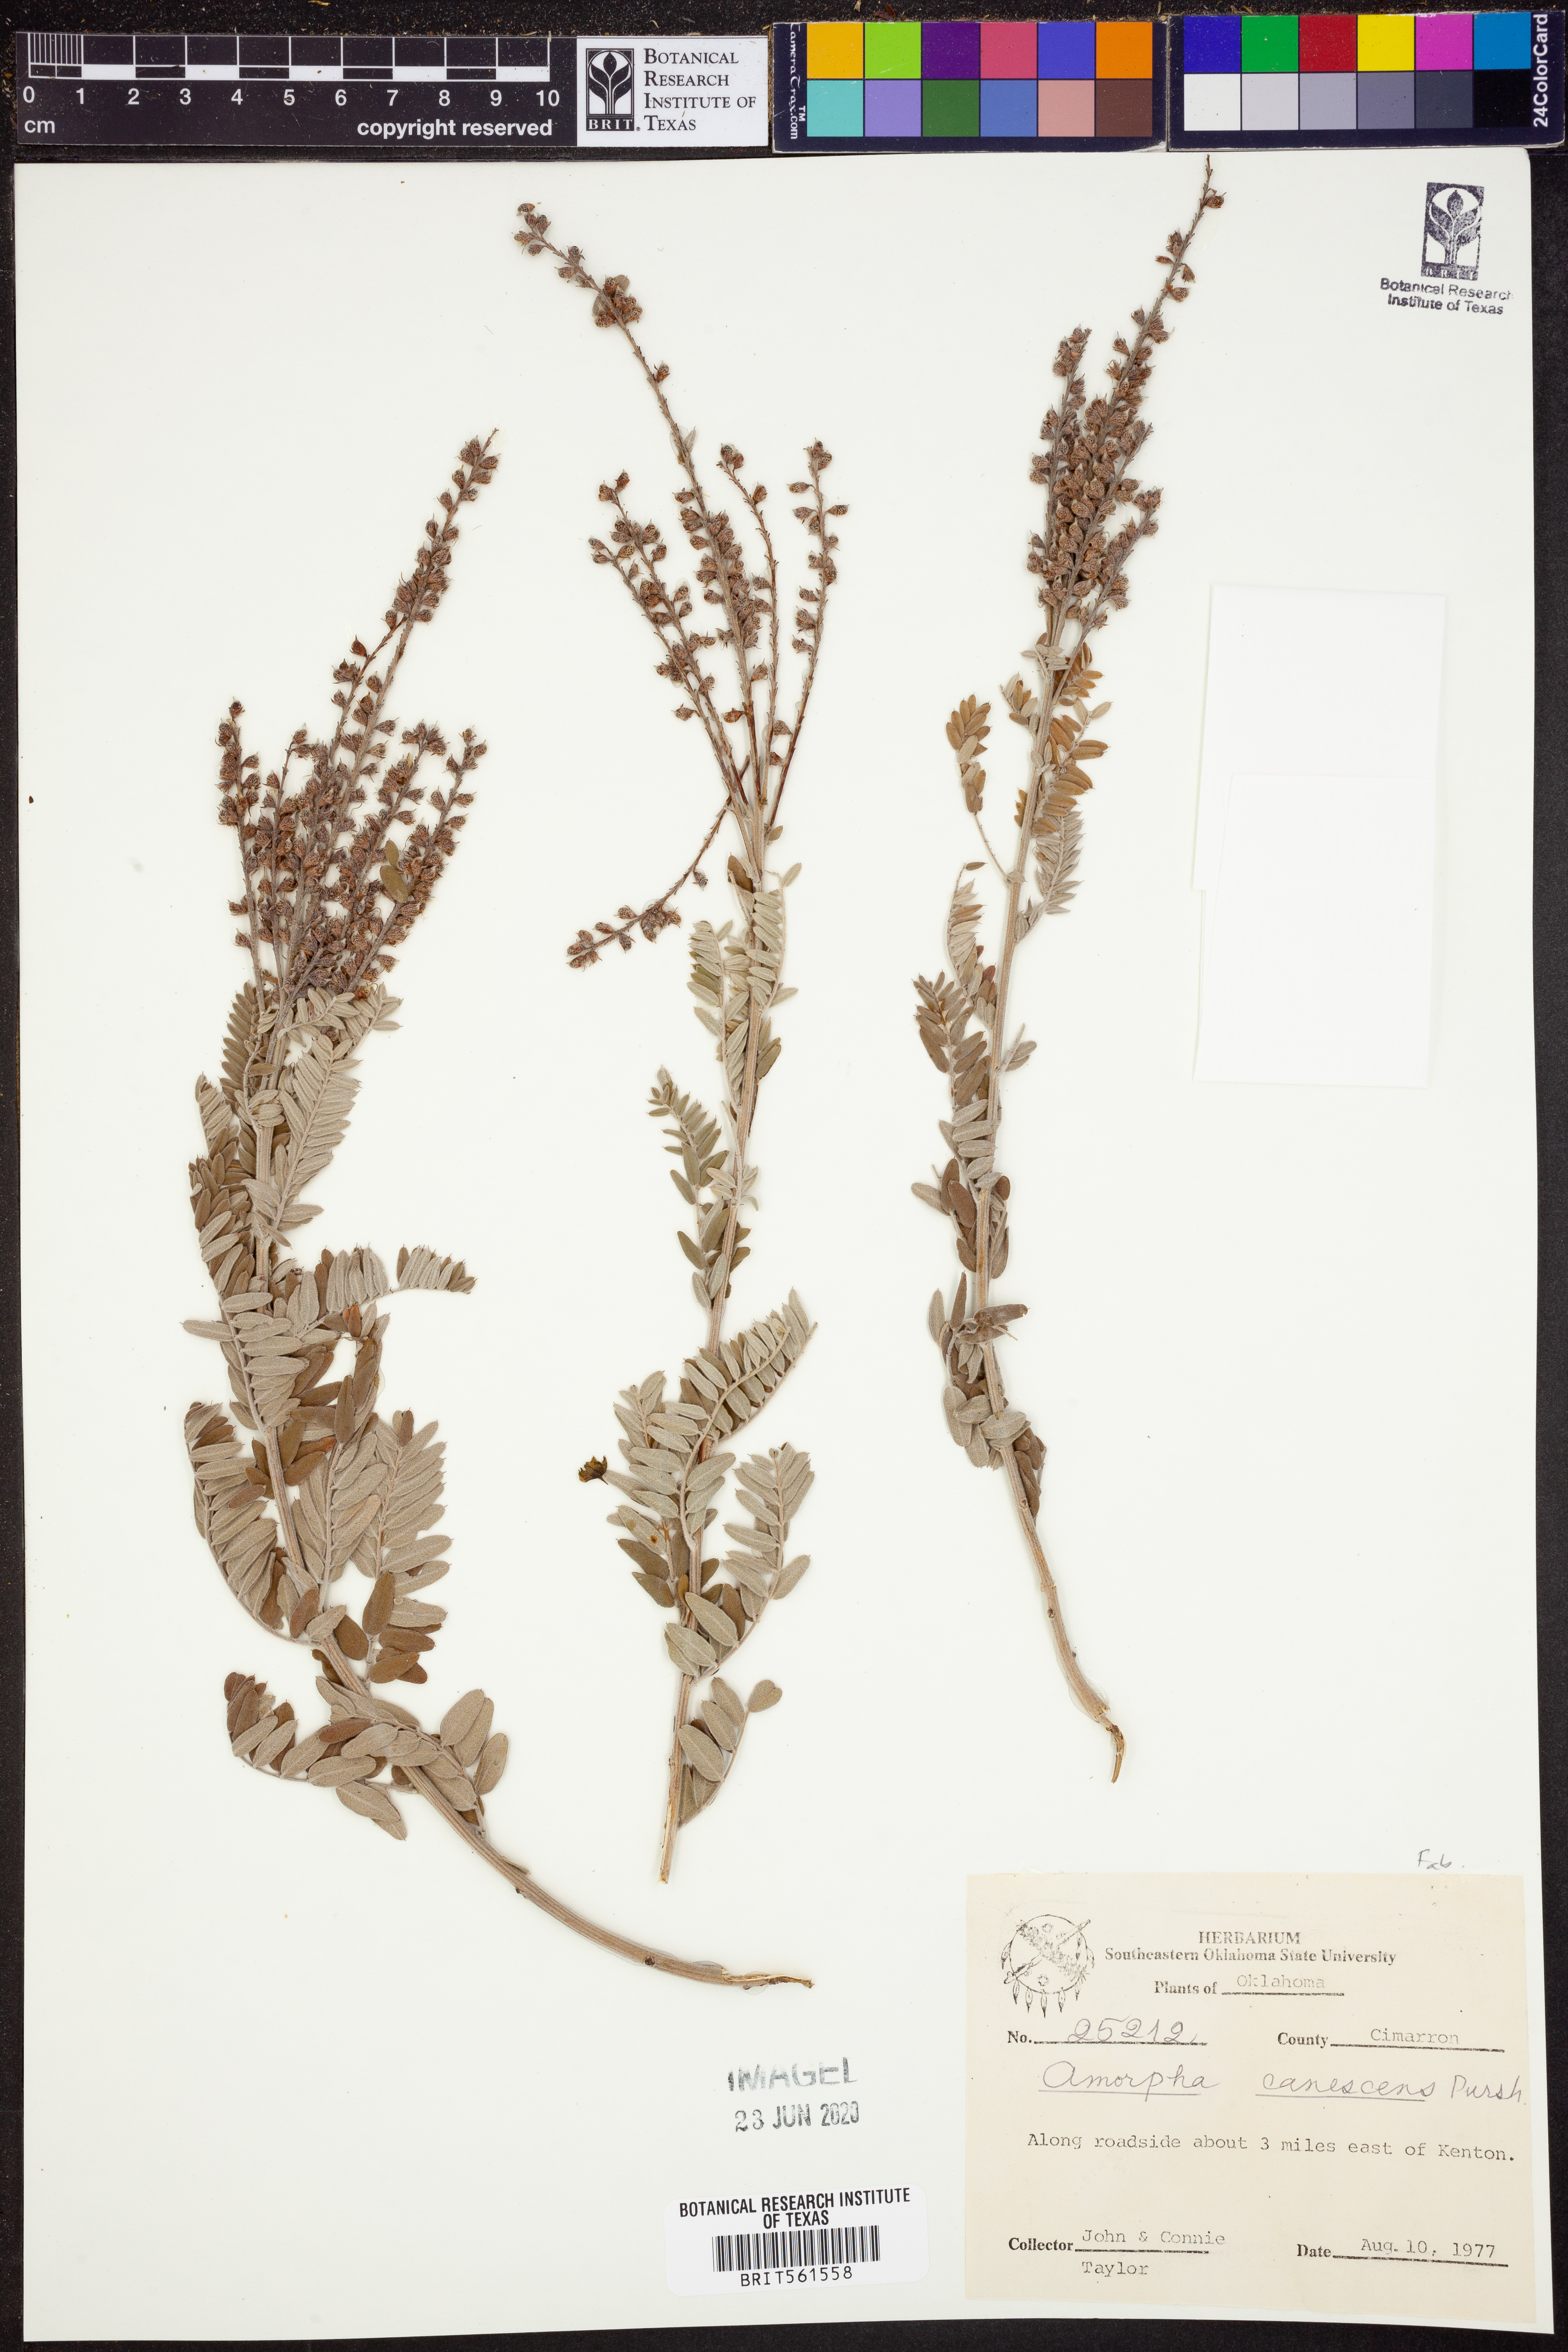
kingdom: Plantae
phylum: Tracheophyta
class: Magnoliopsida
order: Fabales
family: Fabaceae
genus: Amorpha
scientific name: Amorpha canescens
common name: Leadplant
